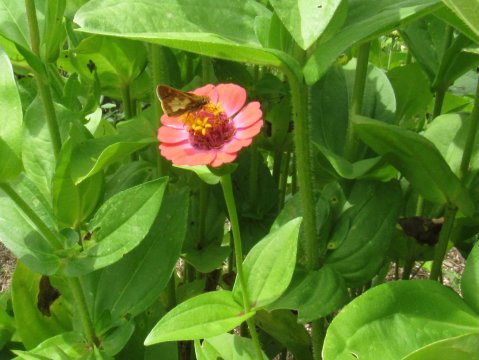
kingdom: Animalia
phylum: Arthropoda
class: Insecta
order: Lepidoptera
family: Hesperiidae
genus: Polites
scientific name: Polites coras
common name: Peck's Skipper
